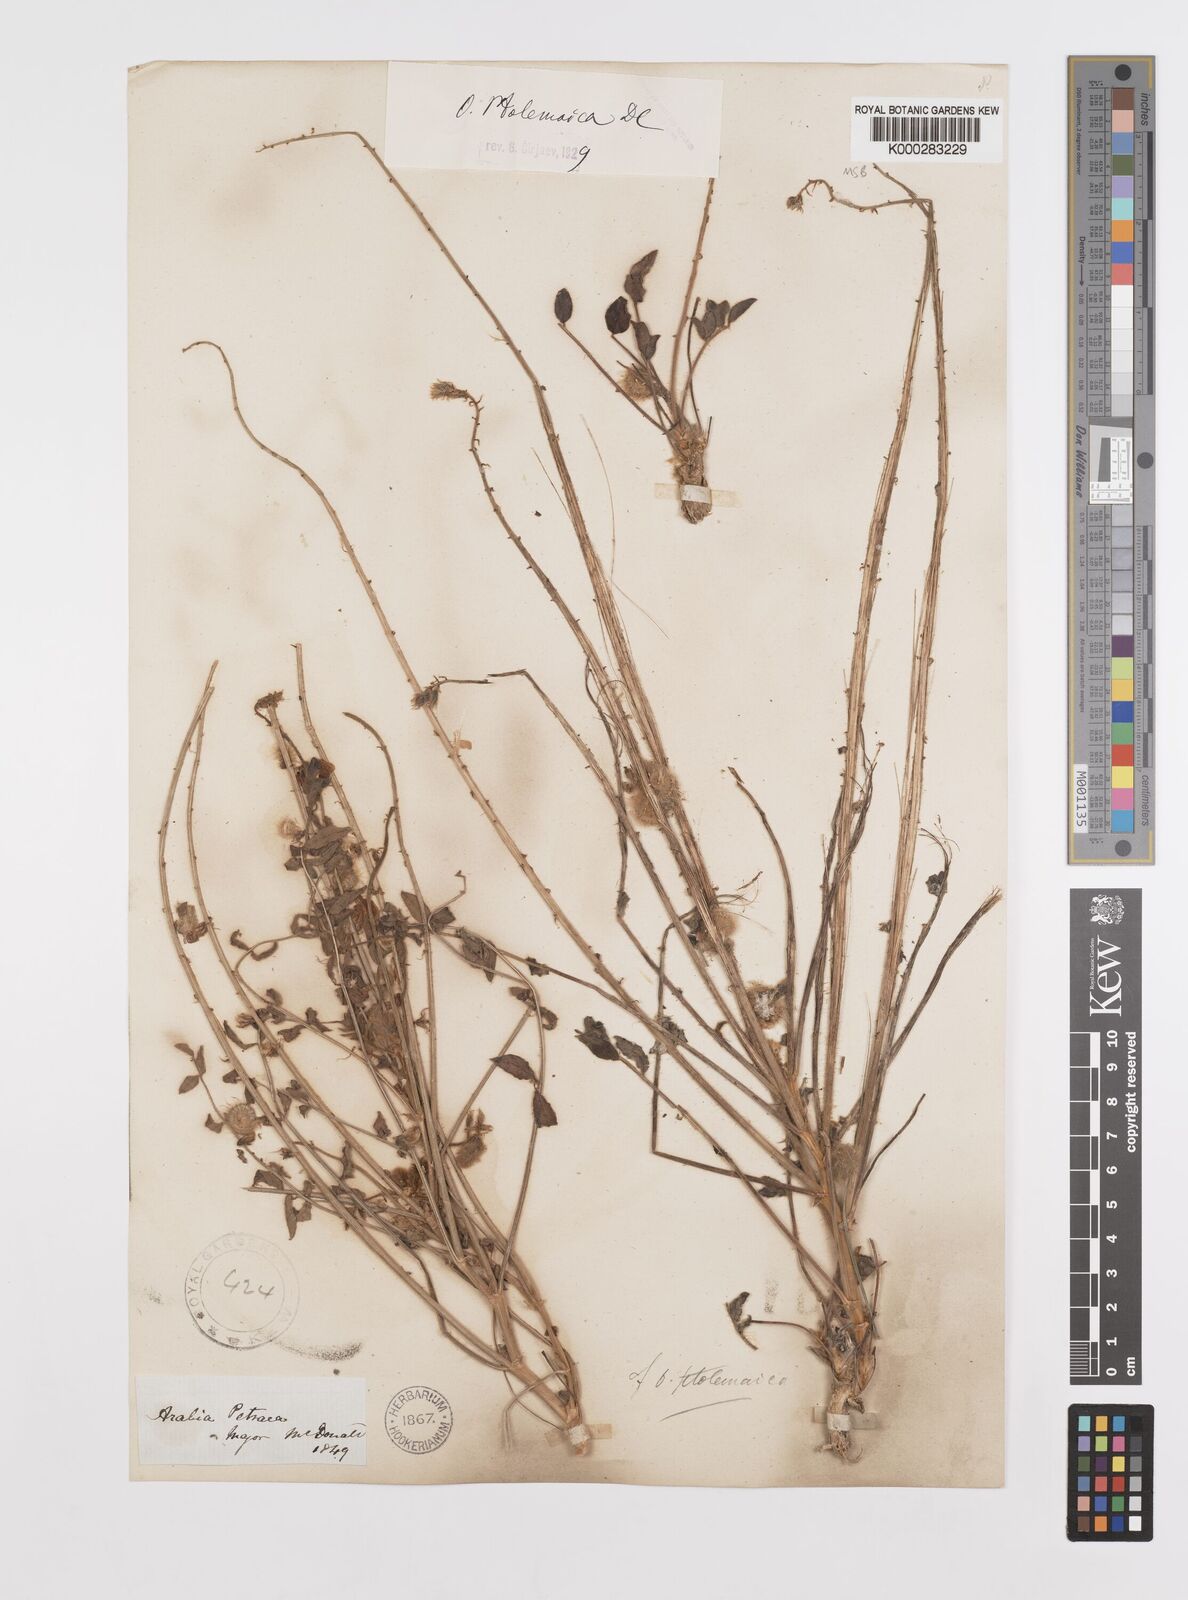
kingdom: Plantae
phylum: Tracheophyta
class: Magnoliopsida
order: Fabales
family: Fabaceae
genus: Onobrychis
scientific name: Onobrychis ptolemaica
